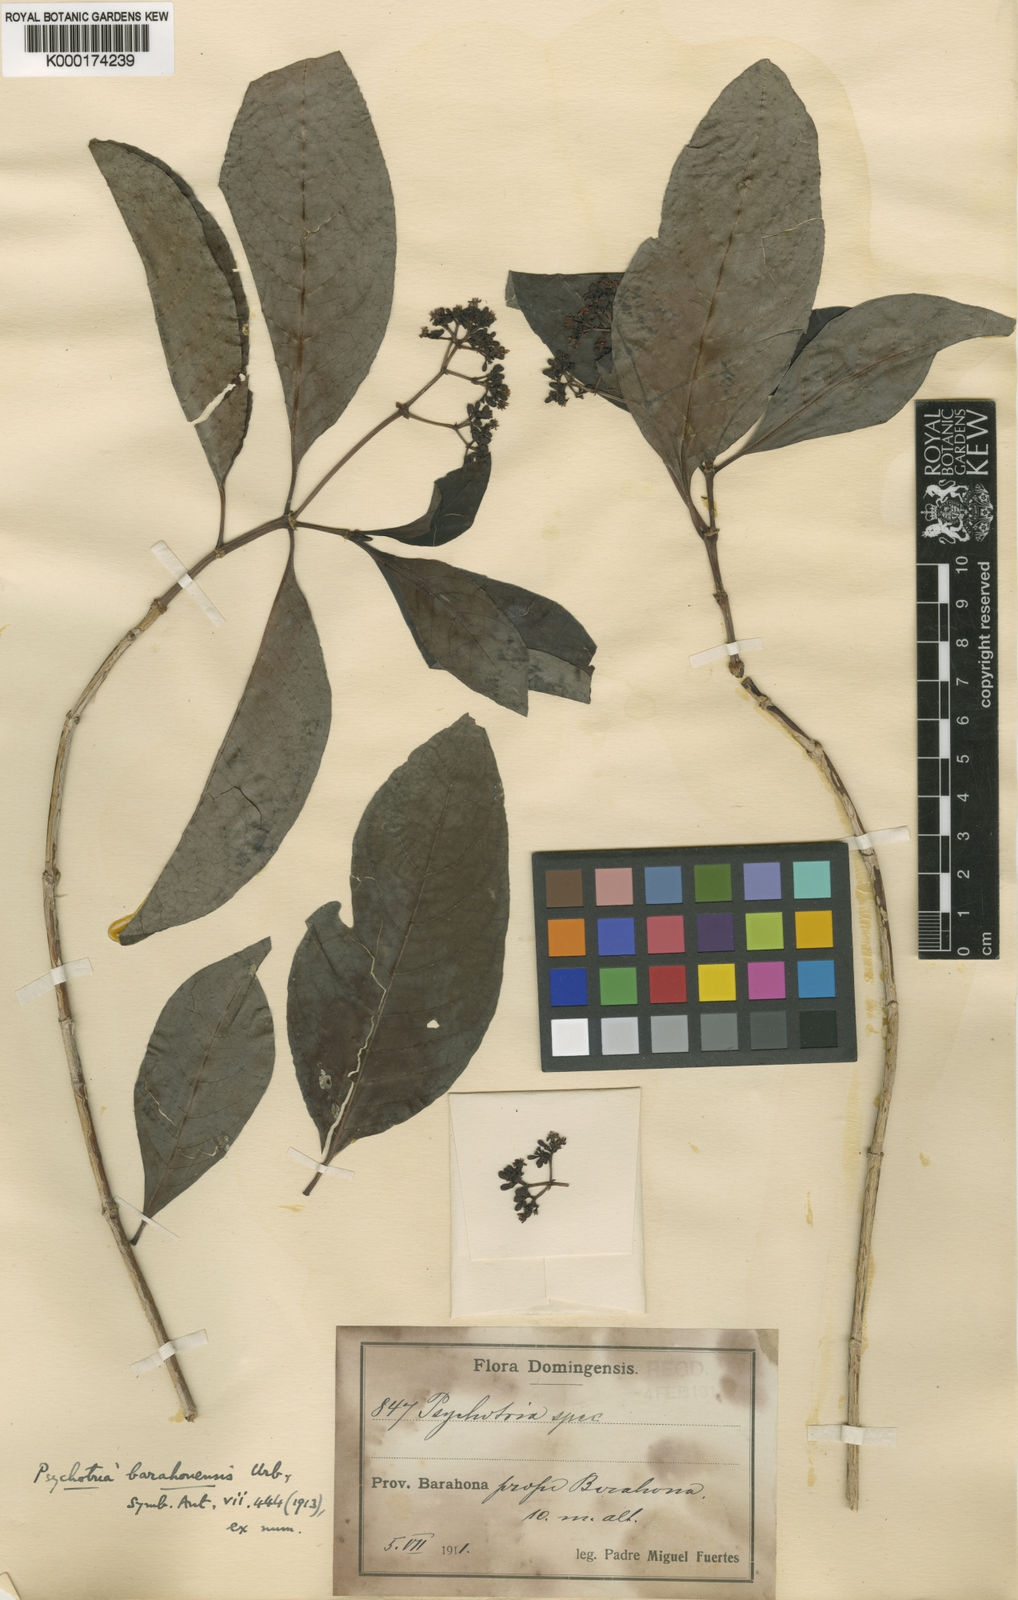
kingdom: Plantae
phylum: Tracheophyta
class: Magnoliopsida
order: Gentianales
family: Rubiaceae
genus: Psychotria
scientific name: Psychotria glabrata
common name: Browne's wild coffee
